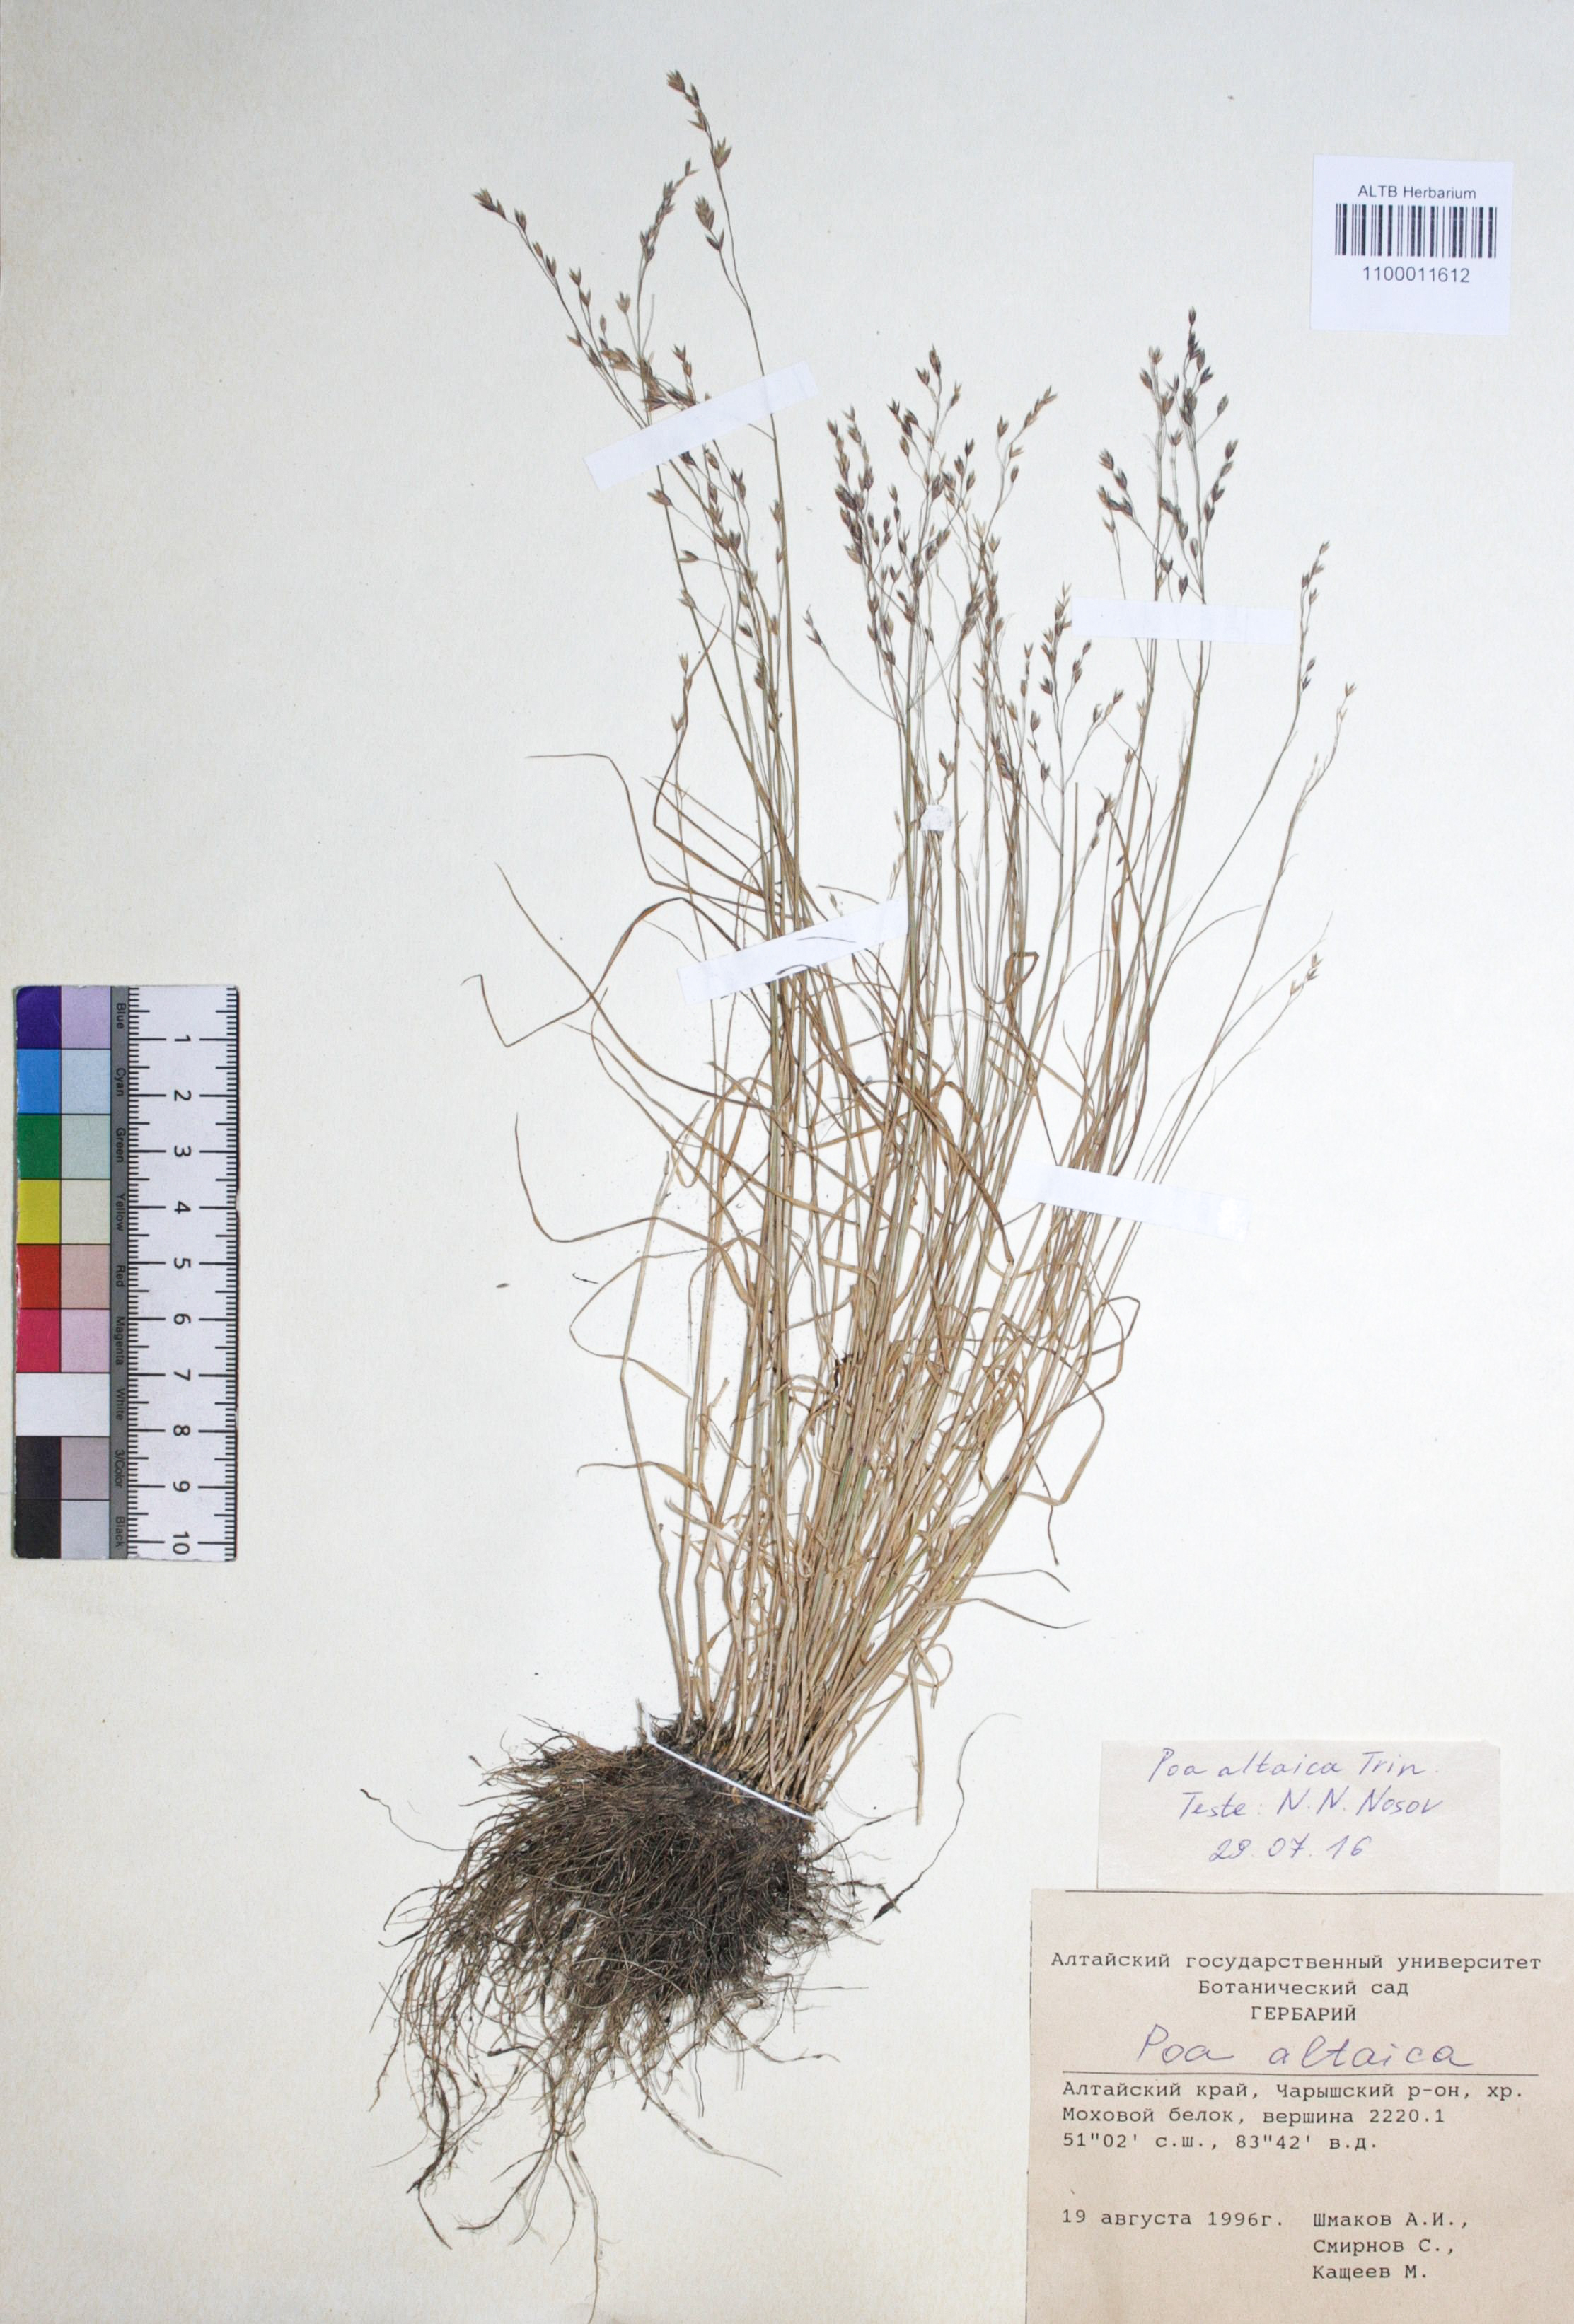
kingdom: Plantae
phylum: Tracheophyta
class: Liliopsida
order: Poales
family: Poaceae
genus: Poa
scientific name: Poa glauca
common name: Glaucous bluegrass
